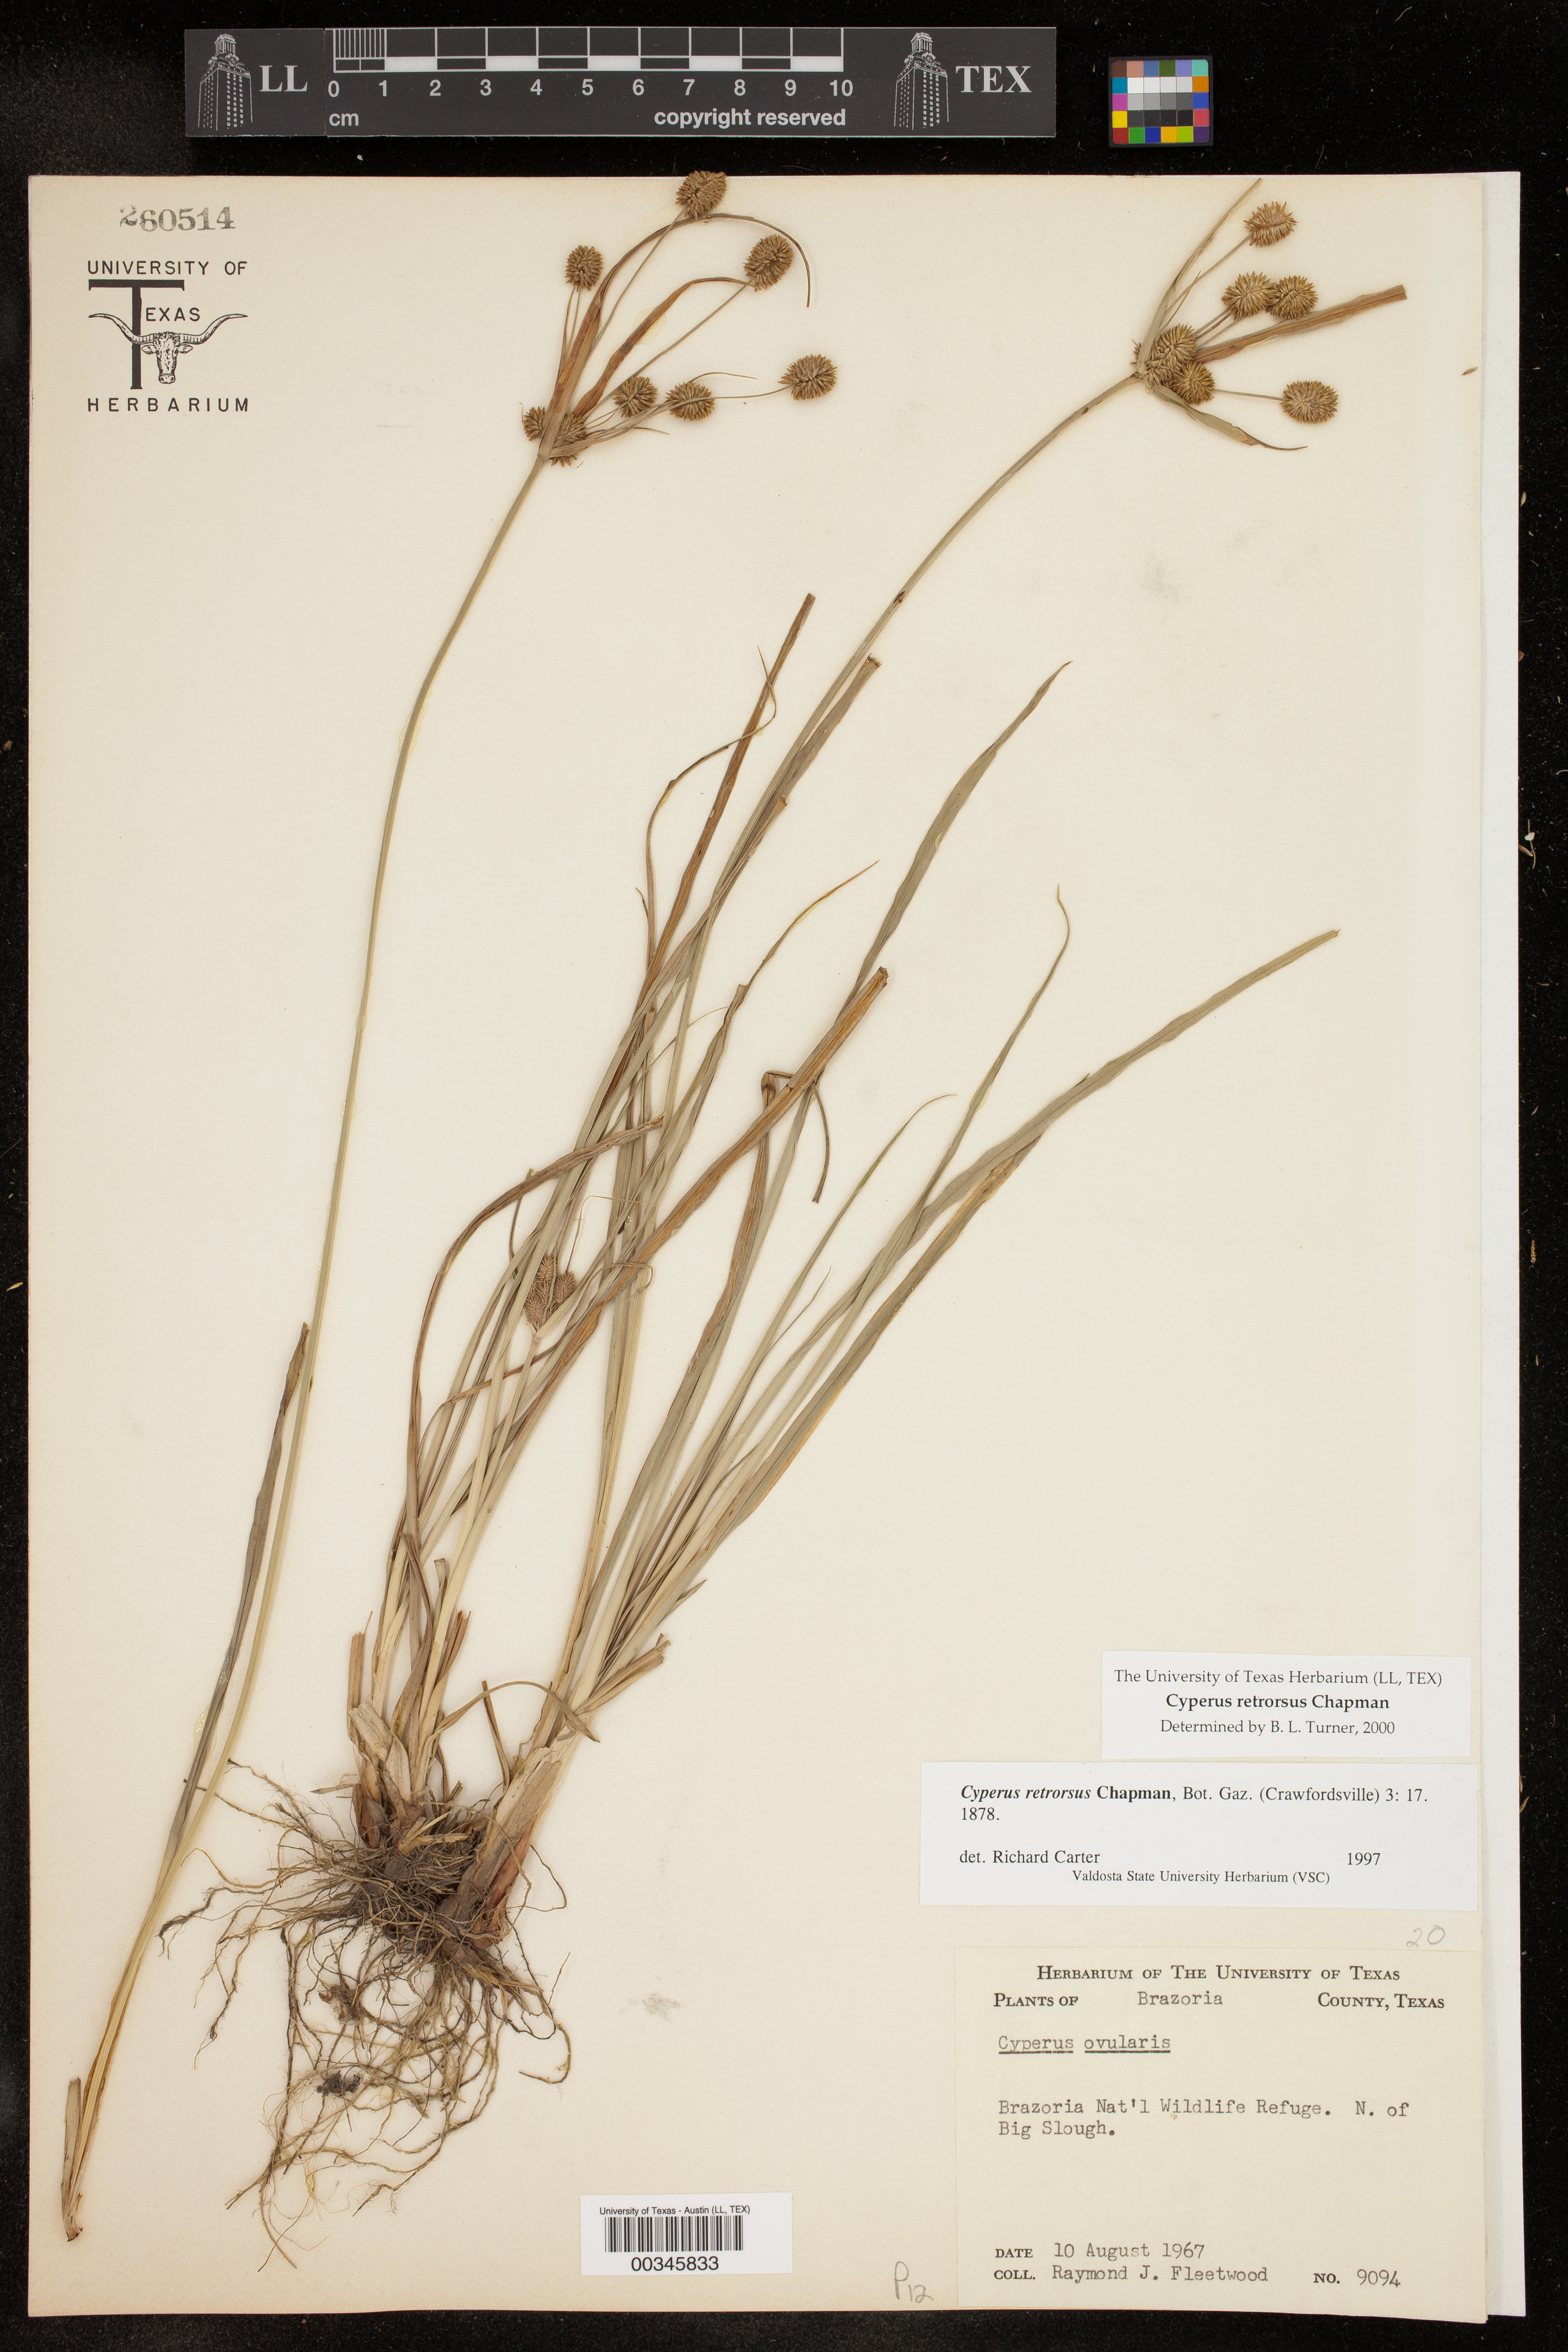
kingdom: Plantae
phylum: Tracheophyta
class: Liliopsida
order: Poales
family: Cyperaceae
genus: Cyperus
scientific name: Cyperus retrorsus
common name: Pinebarren flat sedge
